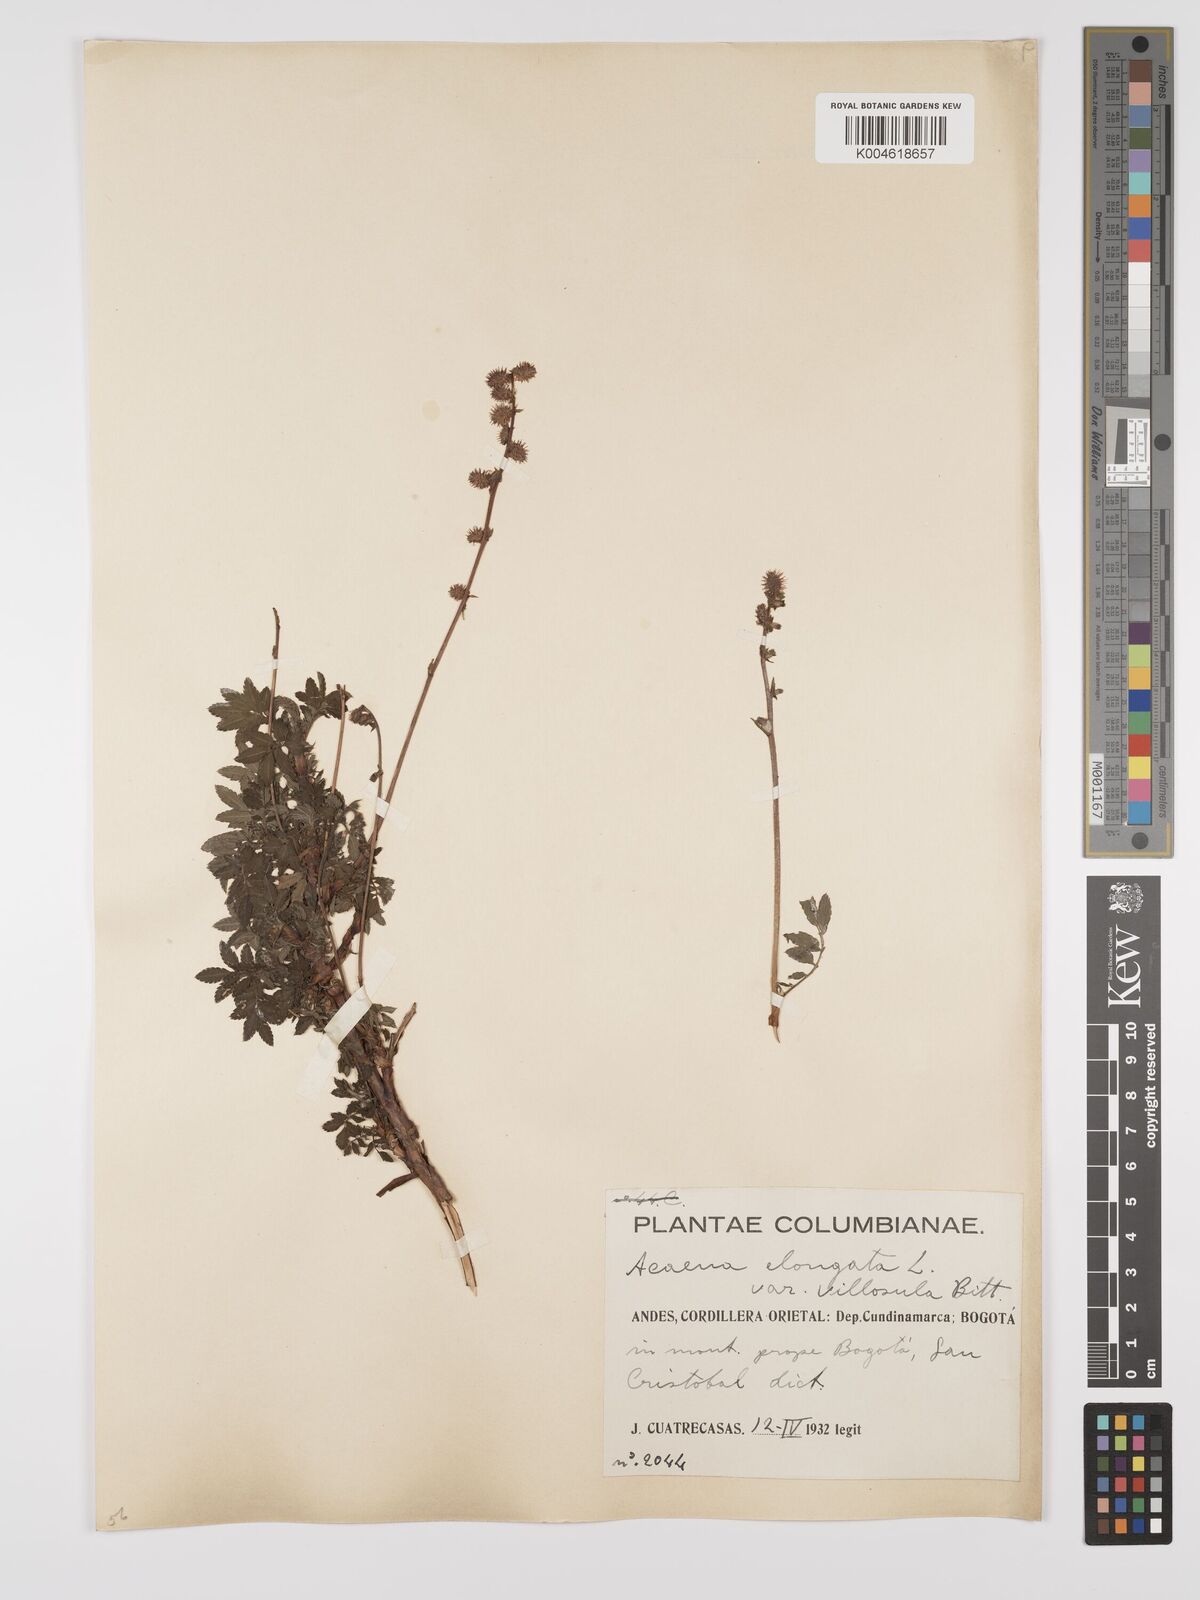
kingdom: Plantae
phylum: Tracheophyta
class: Magnoliopsida
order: Rosales
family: Rosaceae
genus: Acaena
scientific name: Acaena elongata
